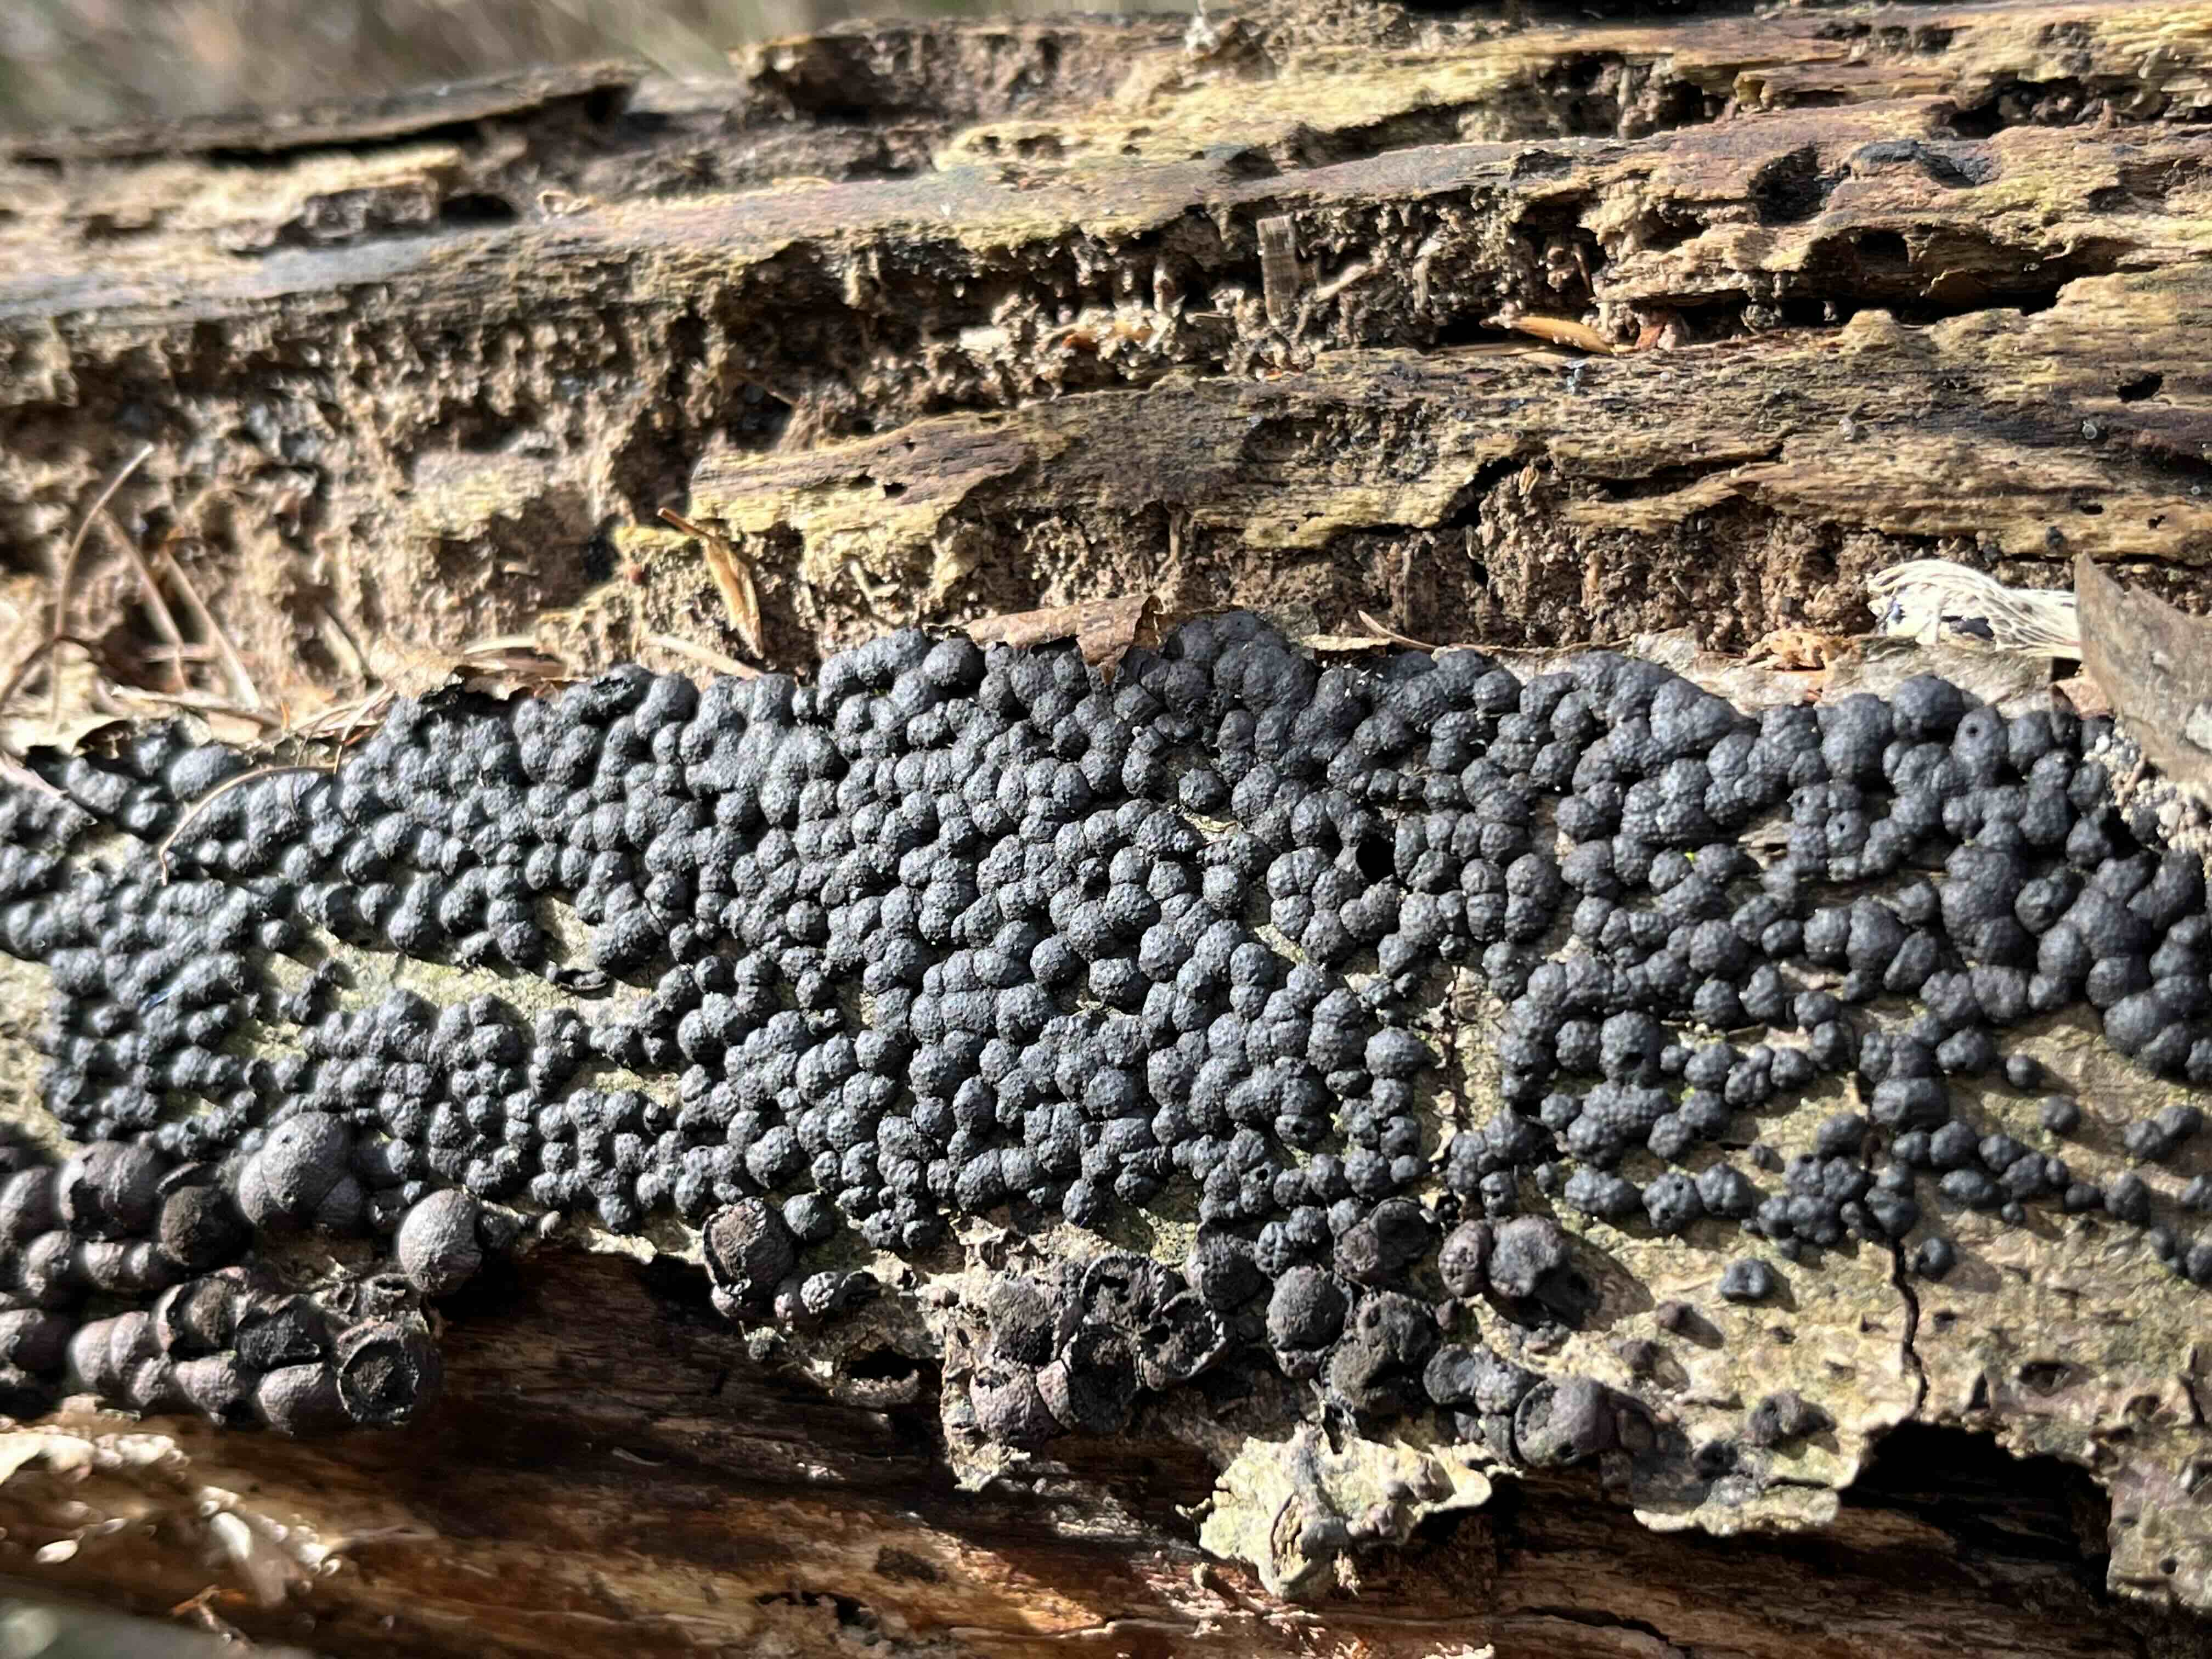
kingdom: Fungi
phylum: Ascomycota
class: Sordariomycetes
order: Xylariales
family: Hypoxylaceae
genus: Jackrogersella
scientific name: Jackrogersella
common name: kulbær
